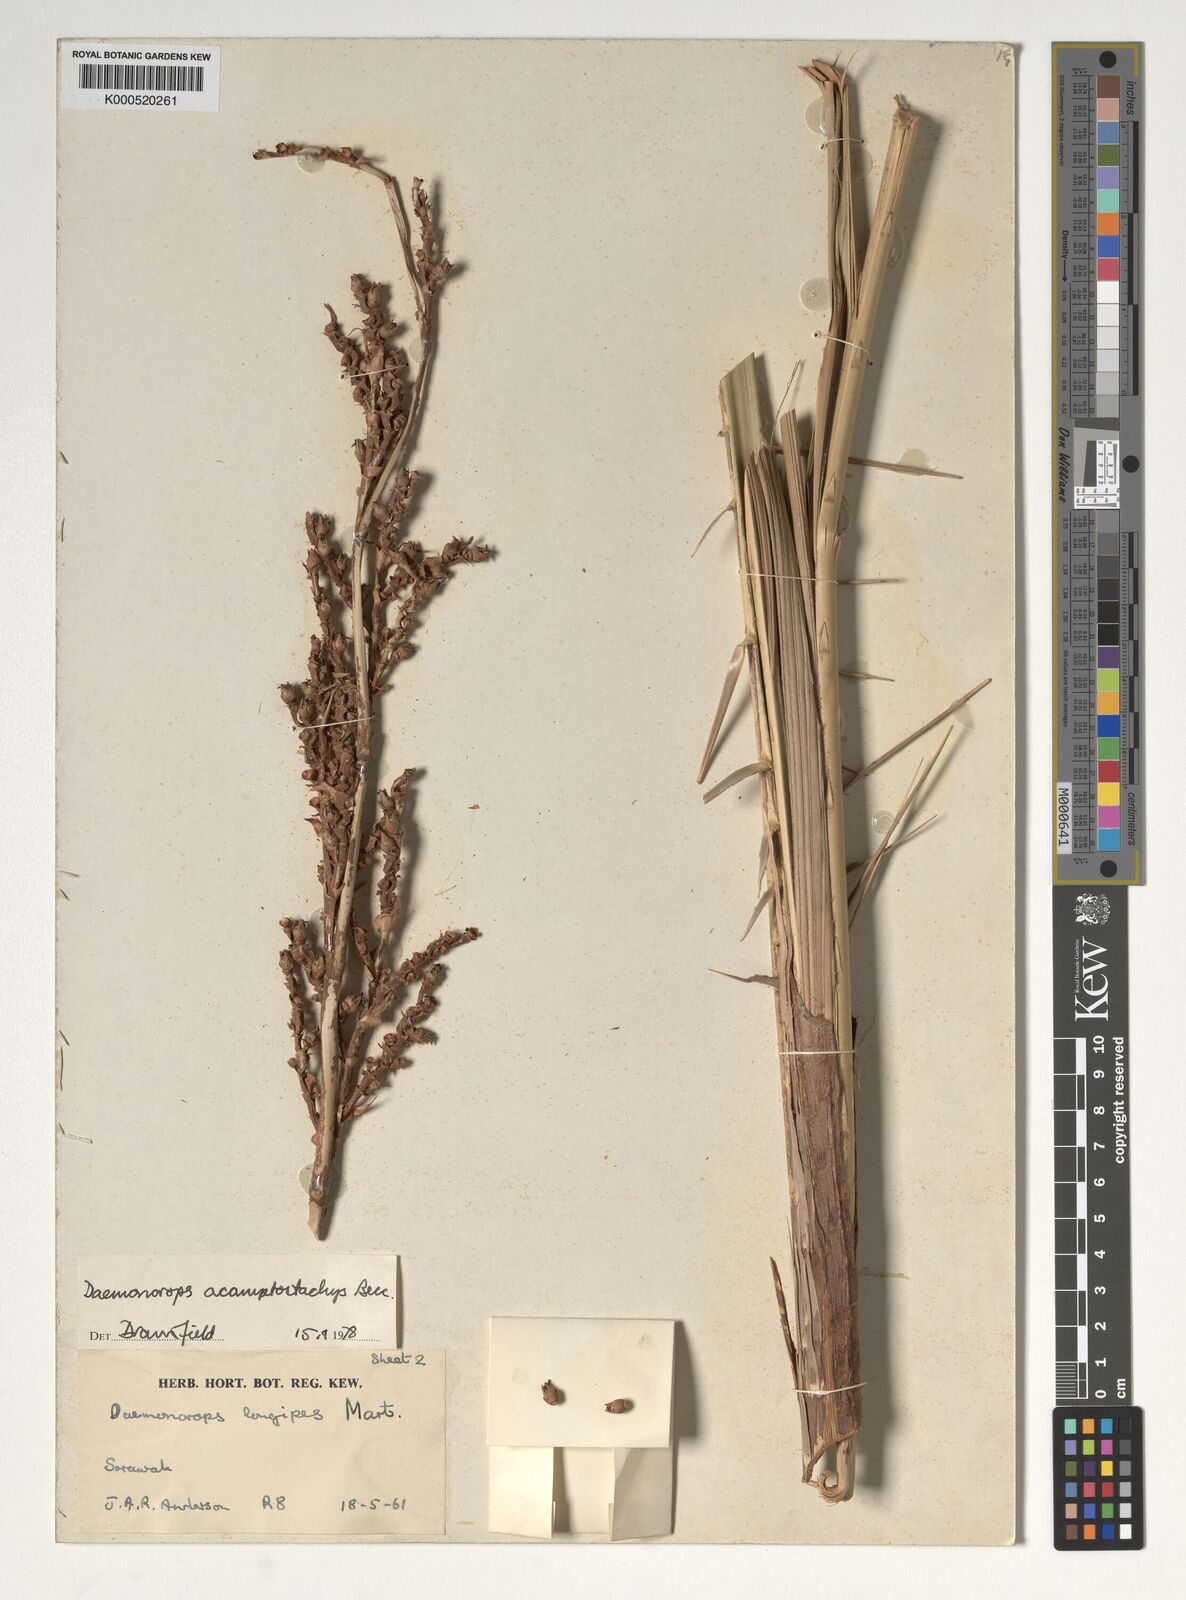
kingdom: Plantae
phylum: Tracheophyta
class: Liliopsida
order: Arecales
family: Arecaceae
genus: Calamus
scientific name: Calamus acamptostachys
